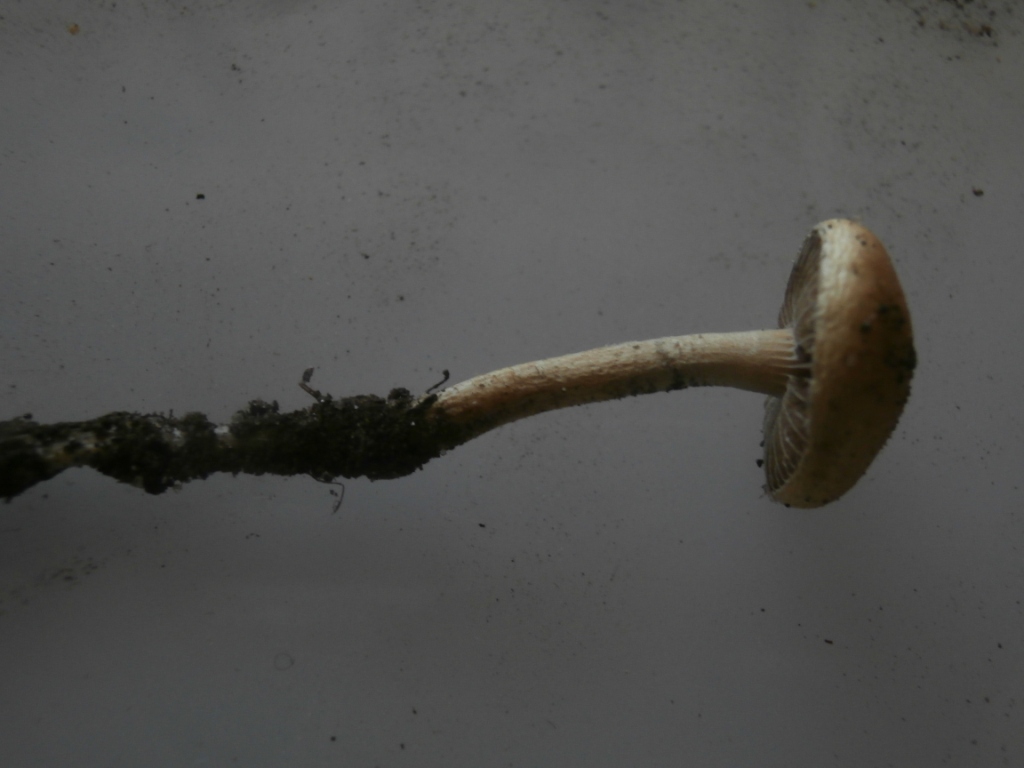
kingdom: Fungi
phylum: Basidiomycota
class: Agaricomycetes
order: Agaricales
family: Strophariaceae
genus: Deconica
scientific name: Deconica merdaria
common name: møg-stråhat
